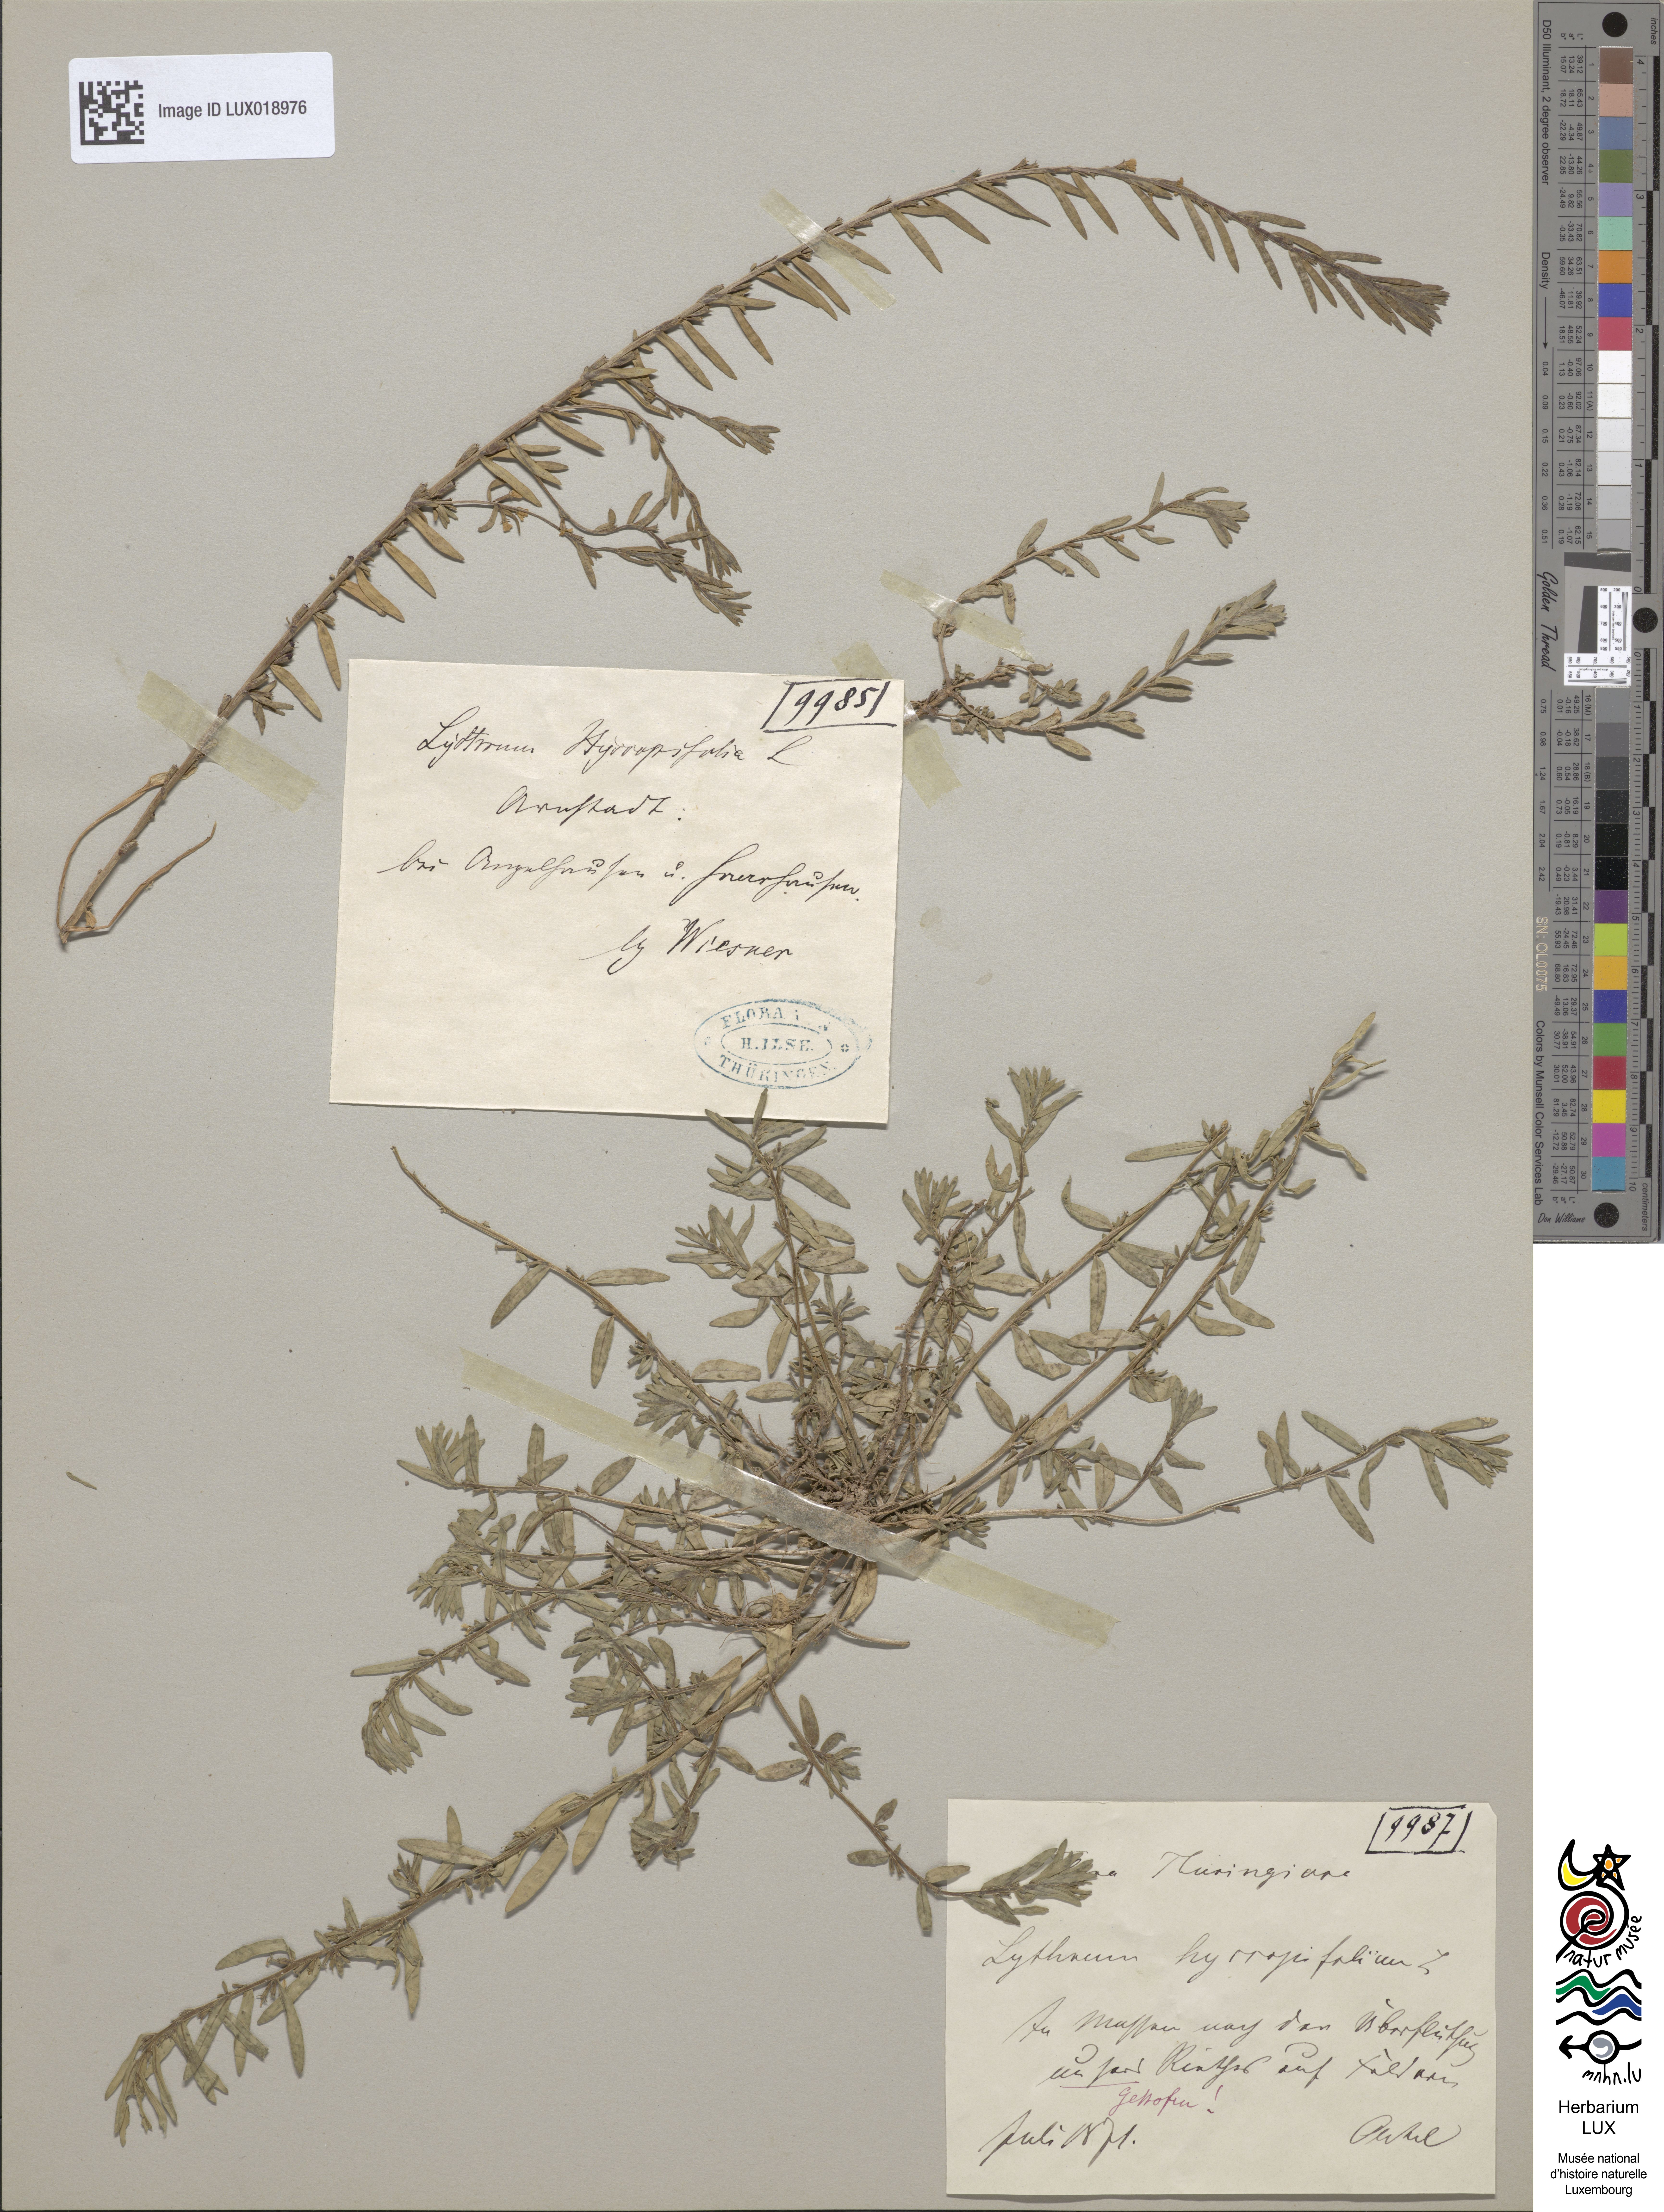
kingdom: Plantae
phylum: Tracheophyta
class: Magnoliopsida
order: Myrtales
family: Lythraceae
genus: Lythrum
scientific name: Lythrum hyssopifolia
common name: Grass-poly
